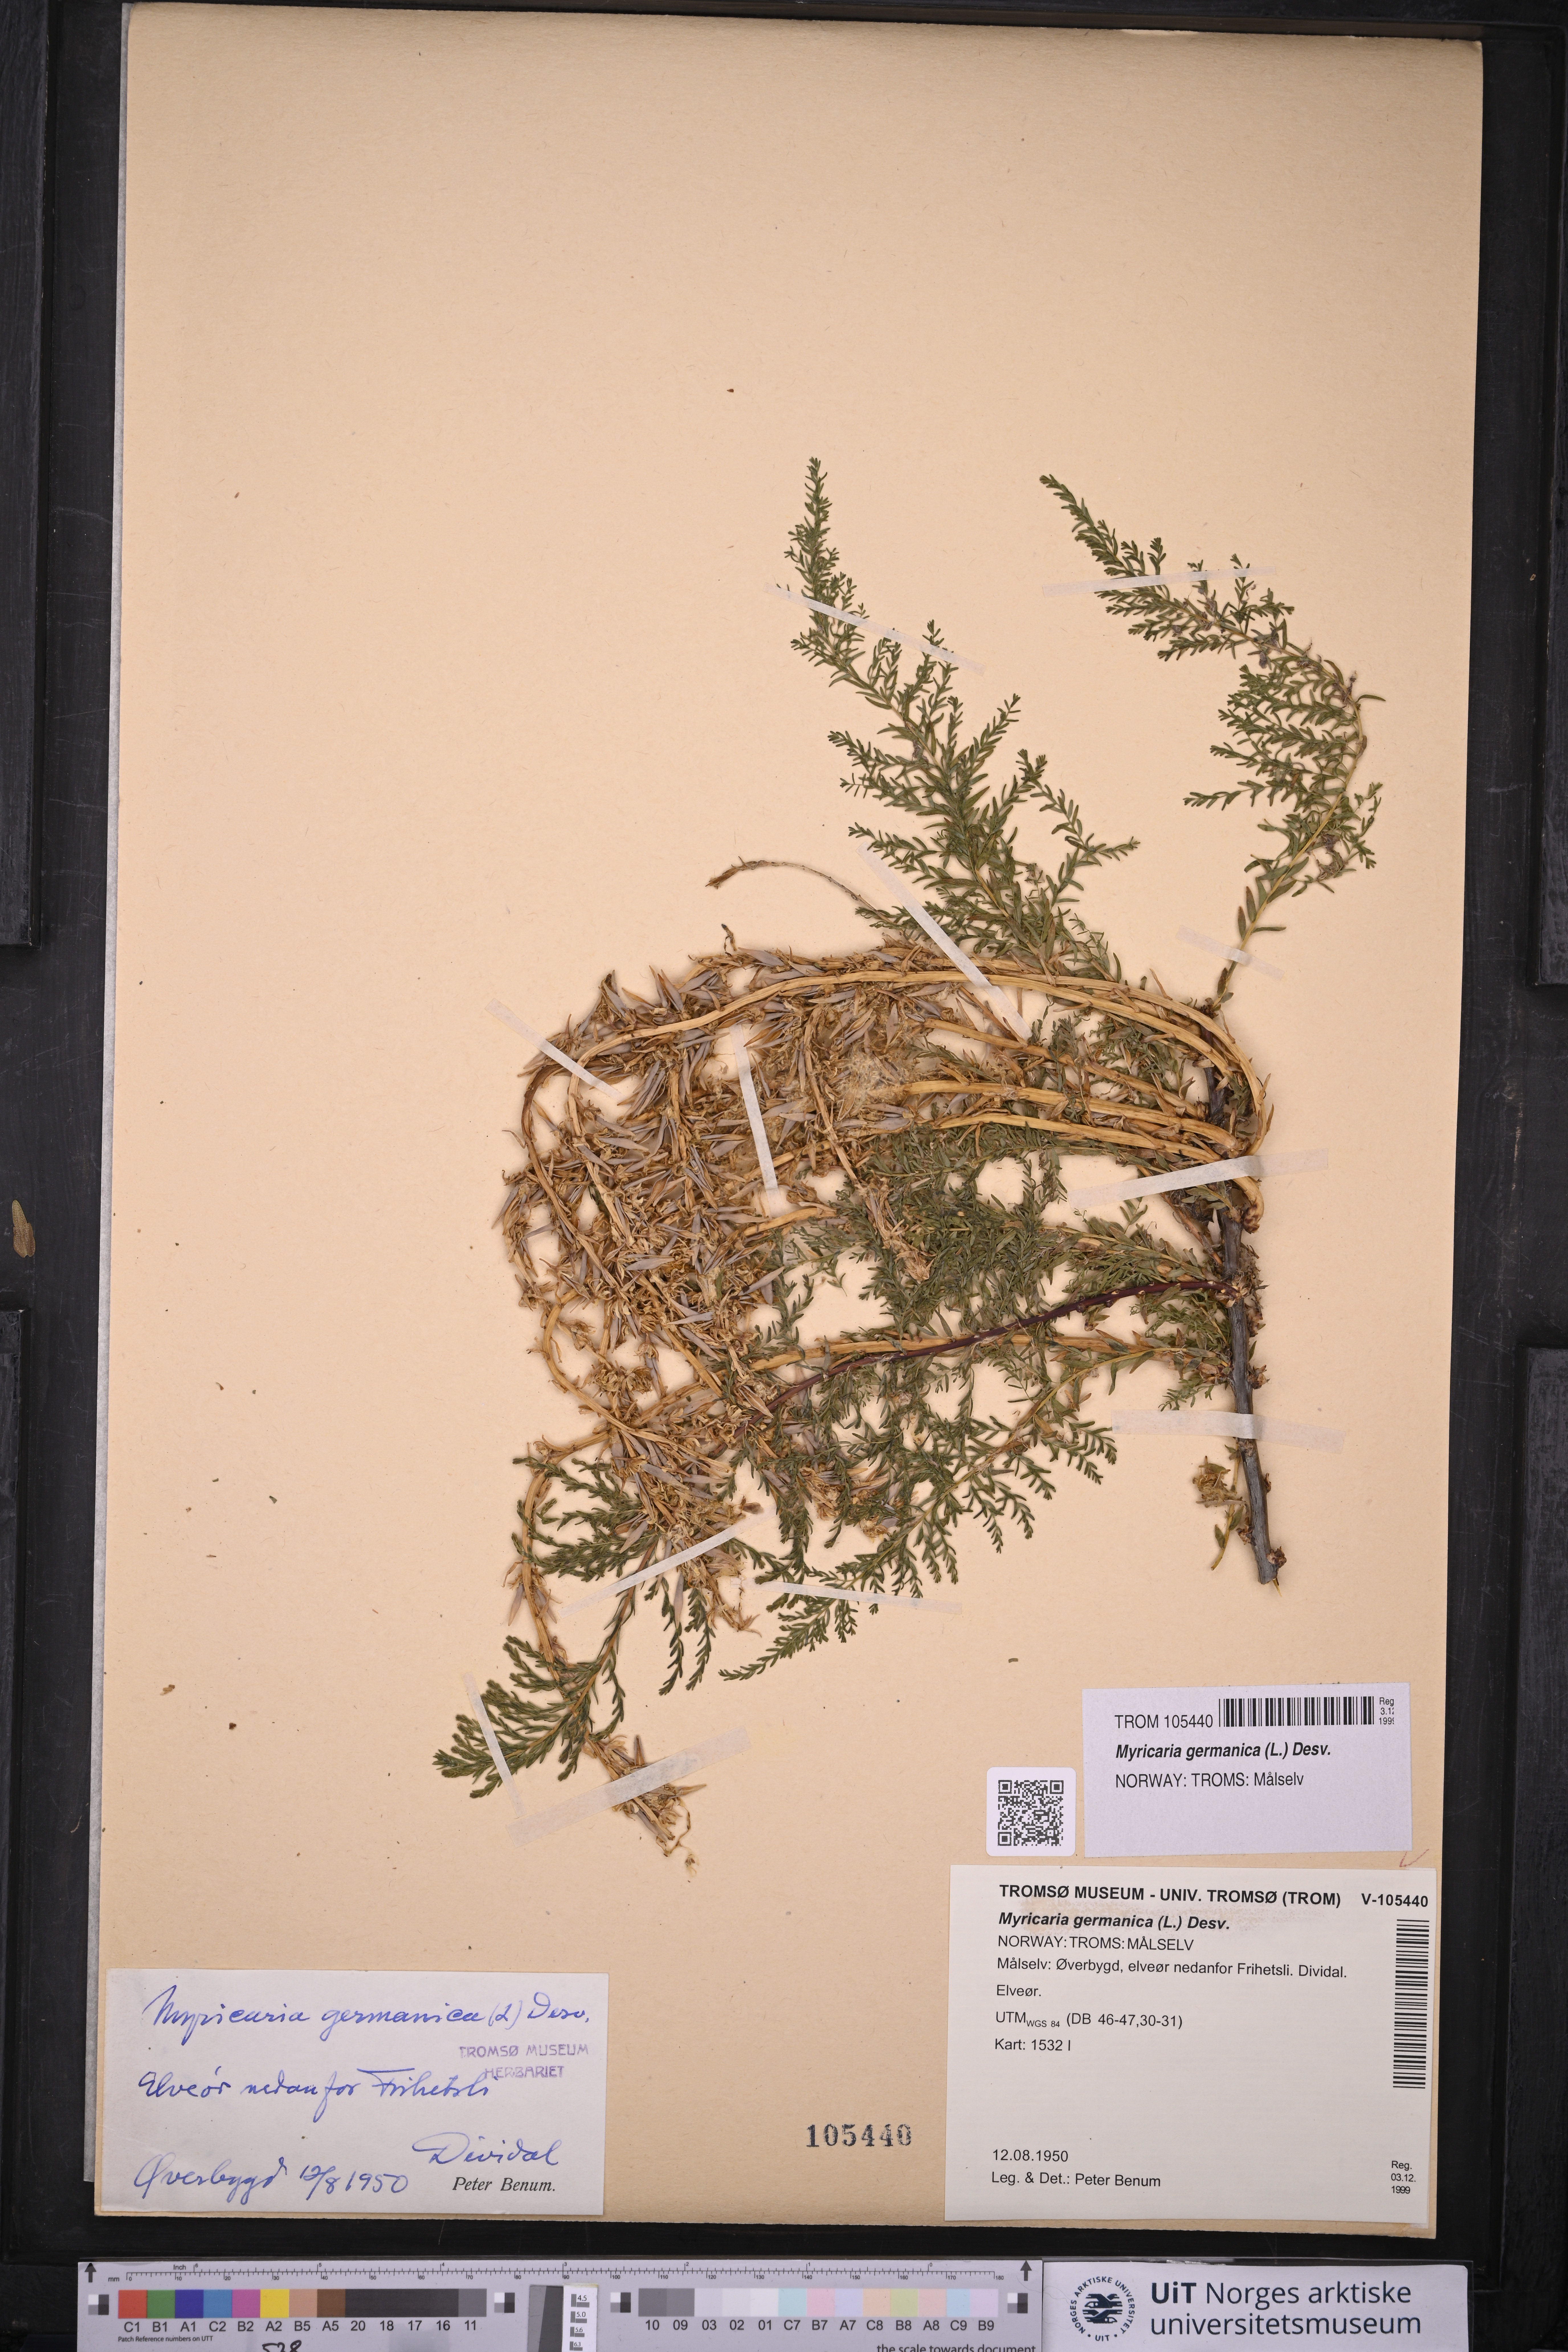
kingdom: Plantae
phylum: Tracheophyta
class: Magnoliopsida
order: Caryophyllales
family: Tamaricaceae
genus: Myricaria
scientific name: Myricaria germanica
